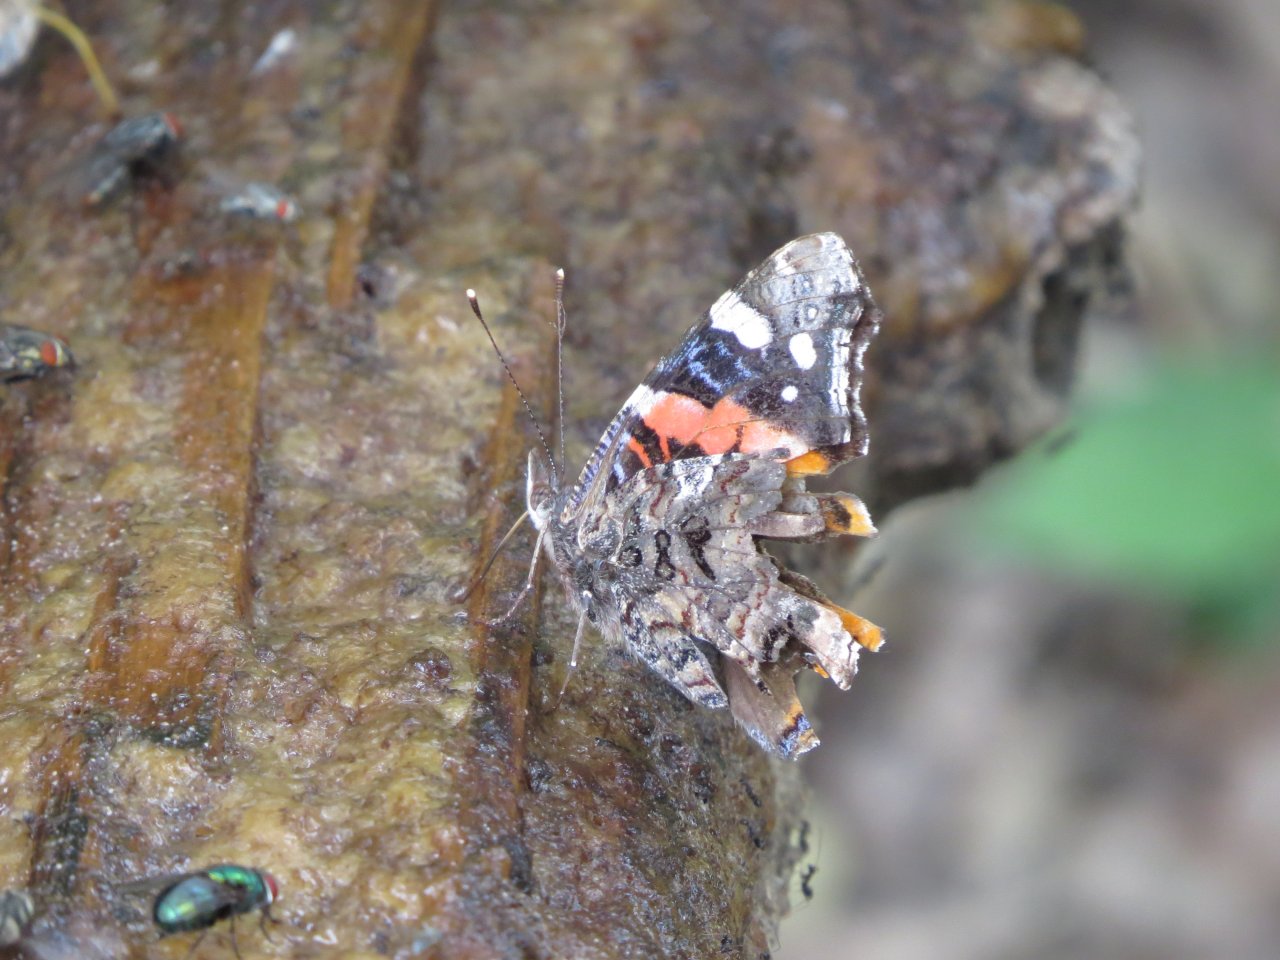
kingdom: Animalia
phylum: Arthropoda
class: Insecta
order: Lepidoptera
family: Nymphalidae
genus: Vanessa
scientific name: Vanessa atalanta
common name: Red Admiral
